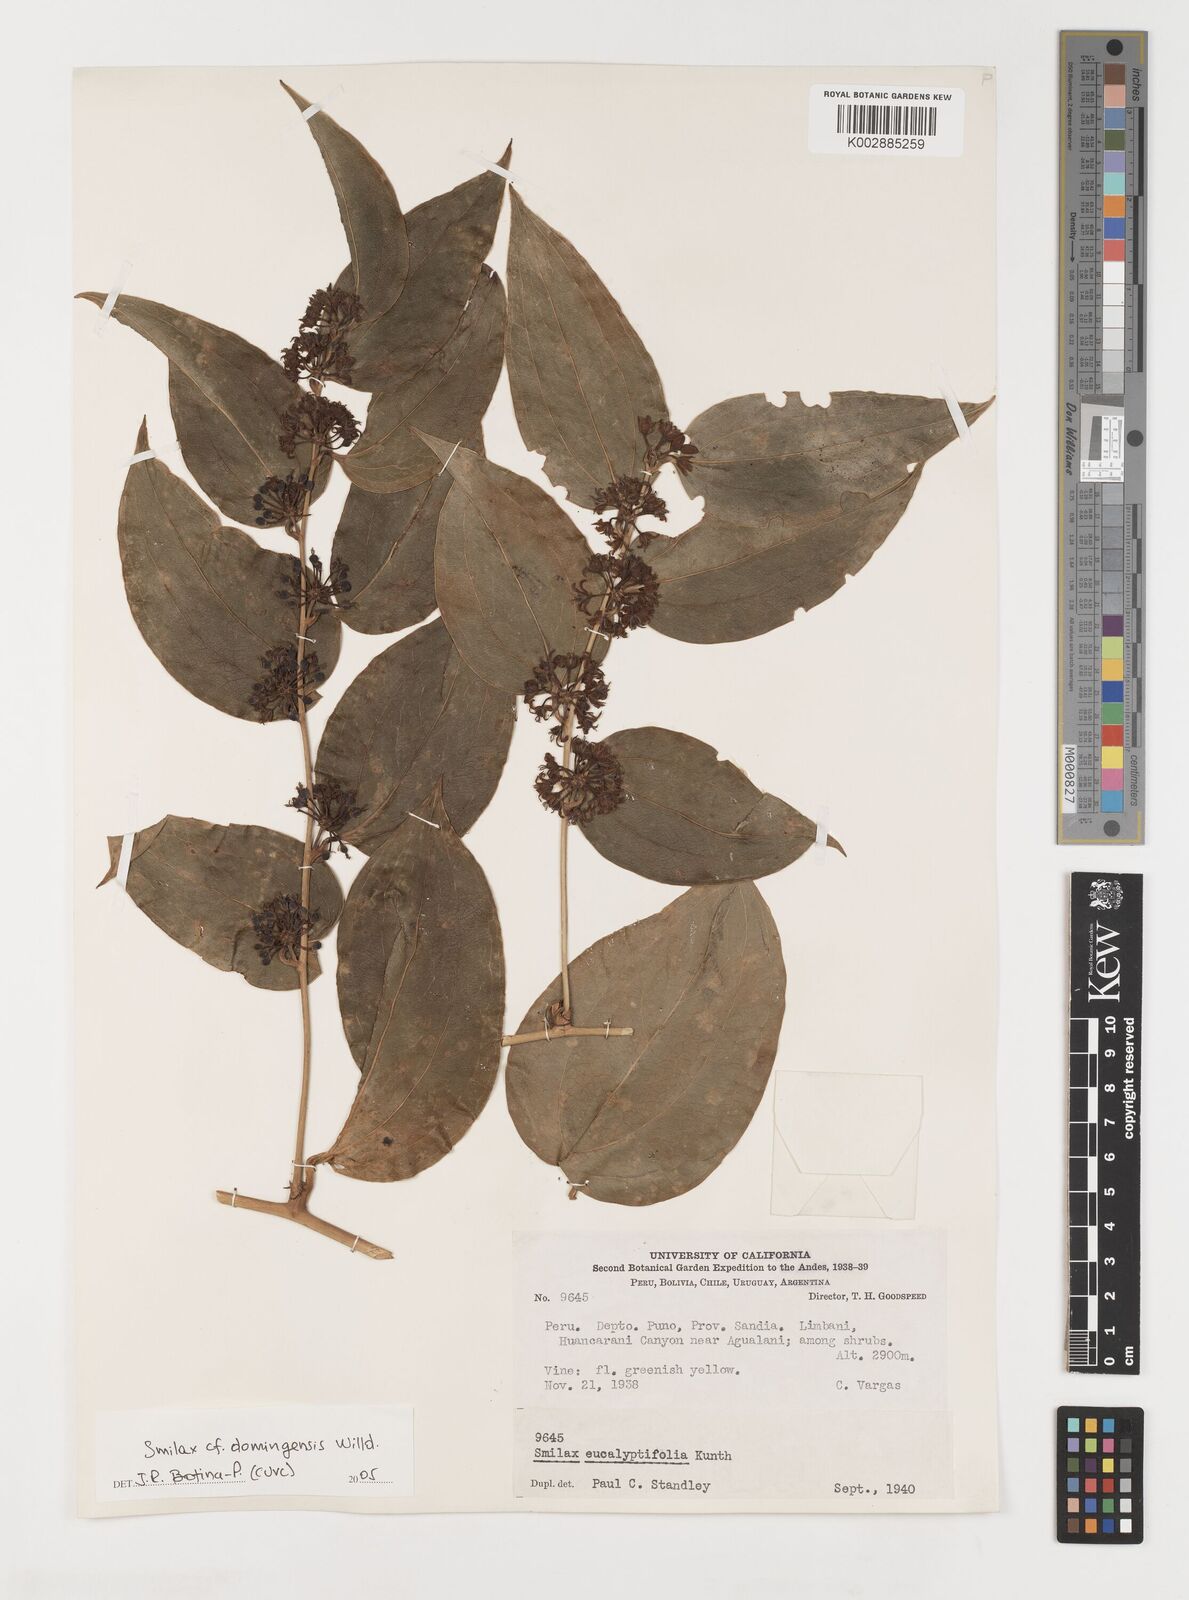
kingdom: Plantae
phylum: Tracheophyta
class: Liliopsida
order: Liliales
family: Smilacaceae
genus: Smilax
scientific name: Smilax domingensis
